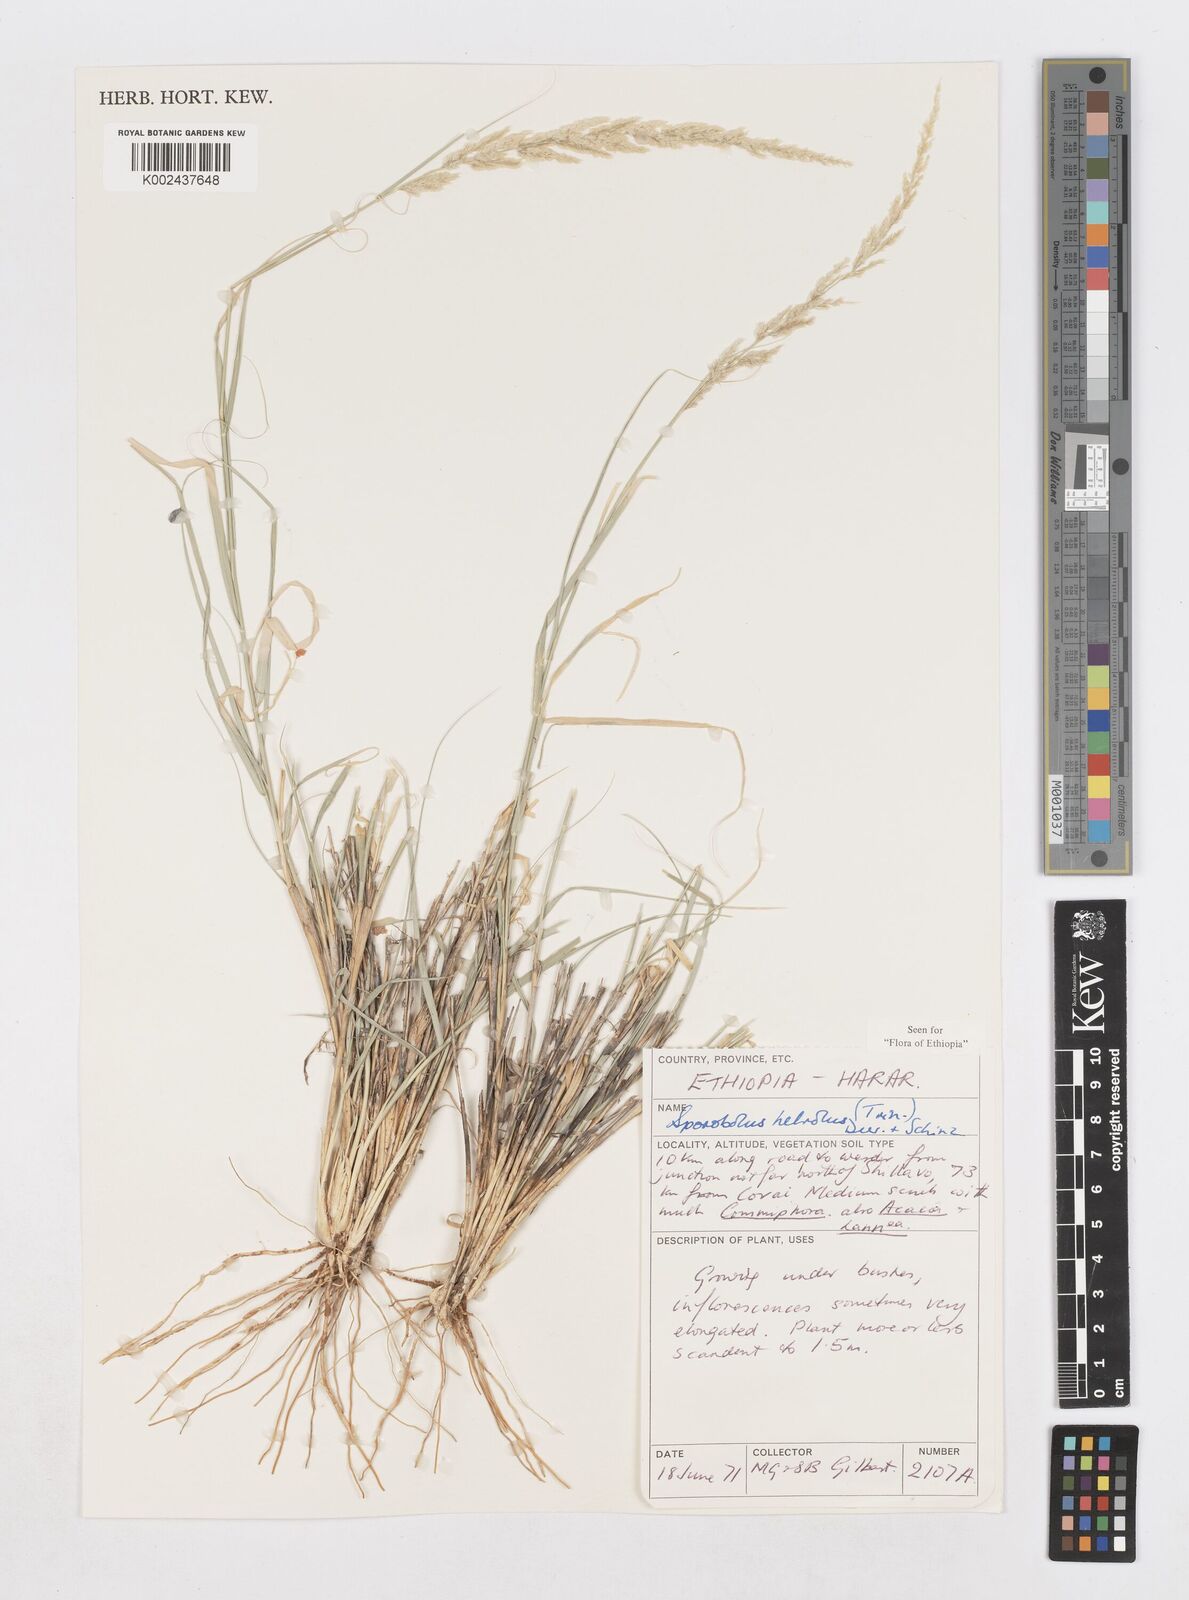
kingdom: Plantae
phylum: Tracheophyta
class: Liliopsida
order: Poales
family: Poaceae
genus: Sporobolus
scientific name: Sporobolus helvolus
